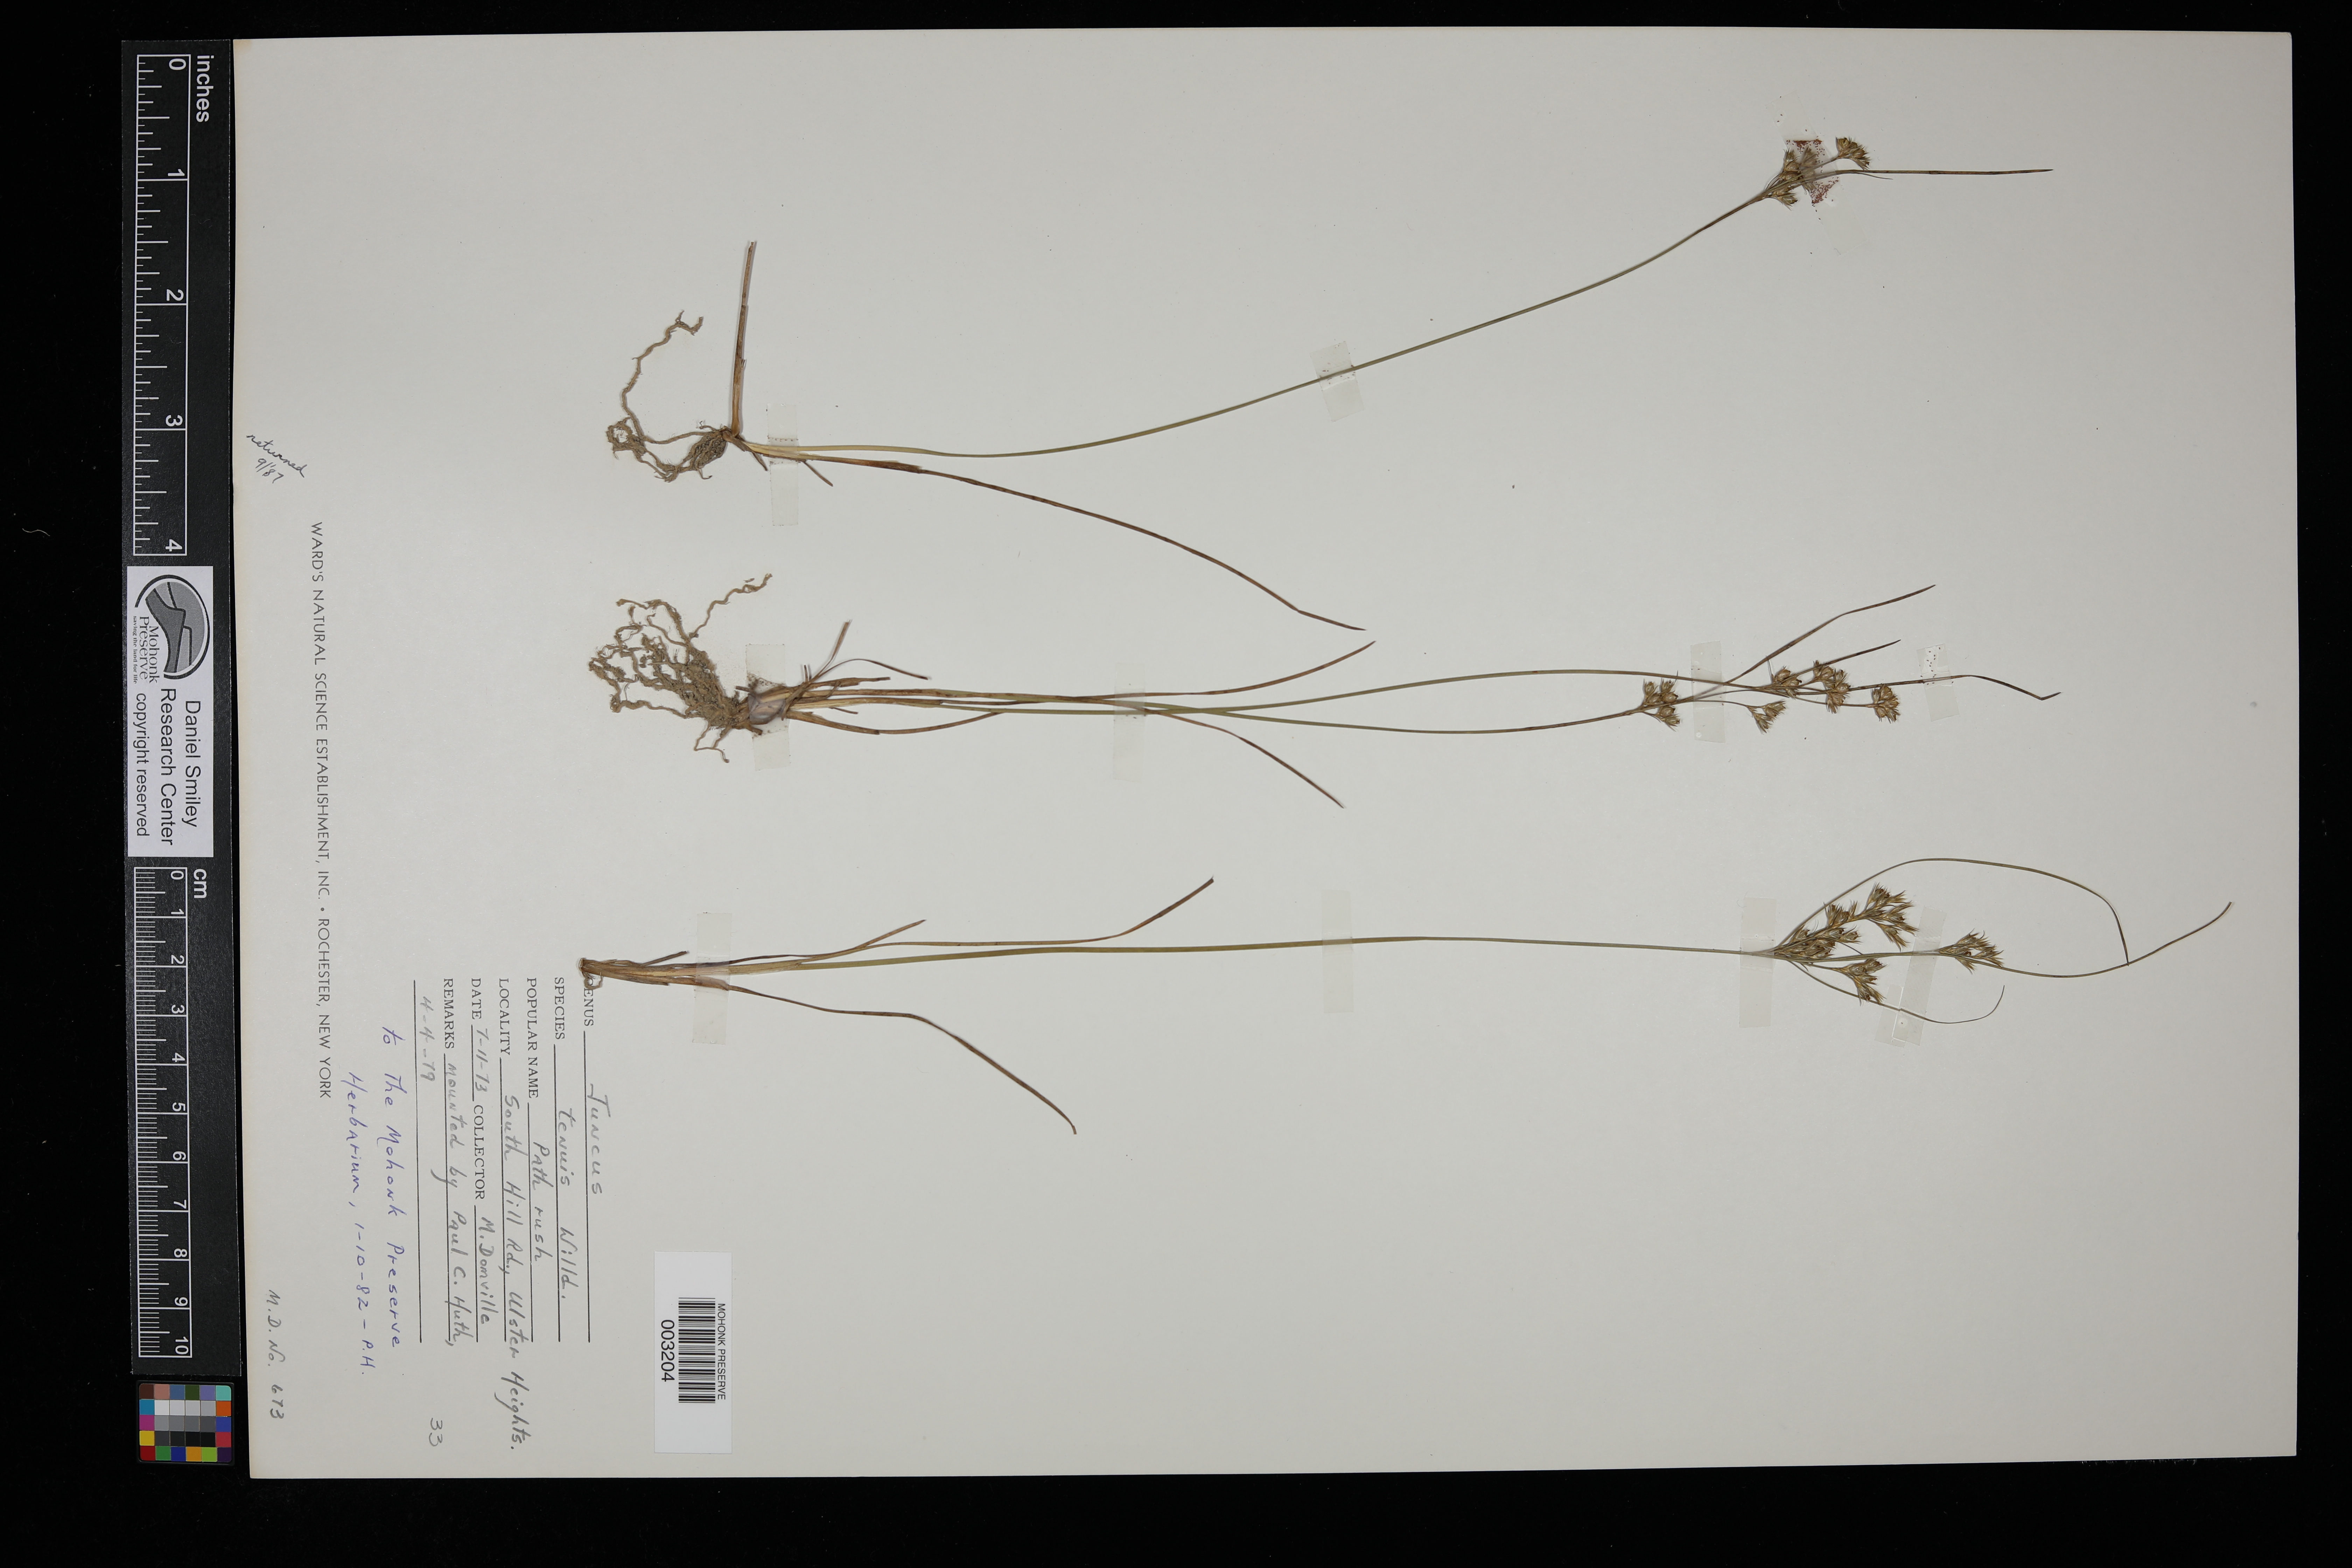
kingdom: Plantae
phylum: Tracheophyta
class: Liliopsida
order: Poales
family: Juncaceae
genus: Juncus
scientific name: Juncus tenuis
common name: Slender rush
